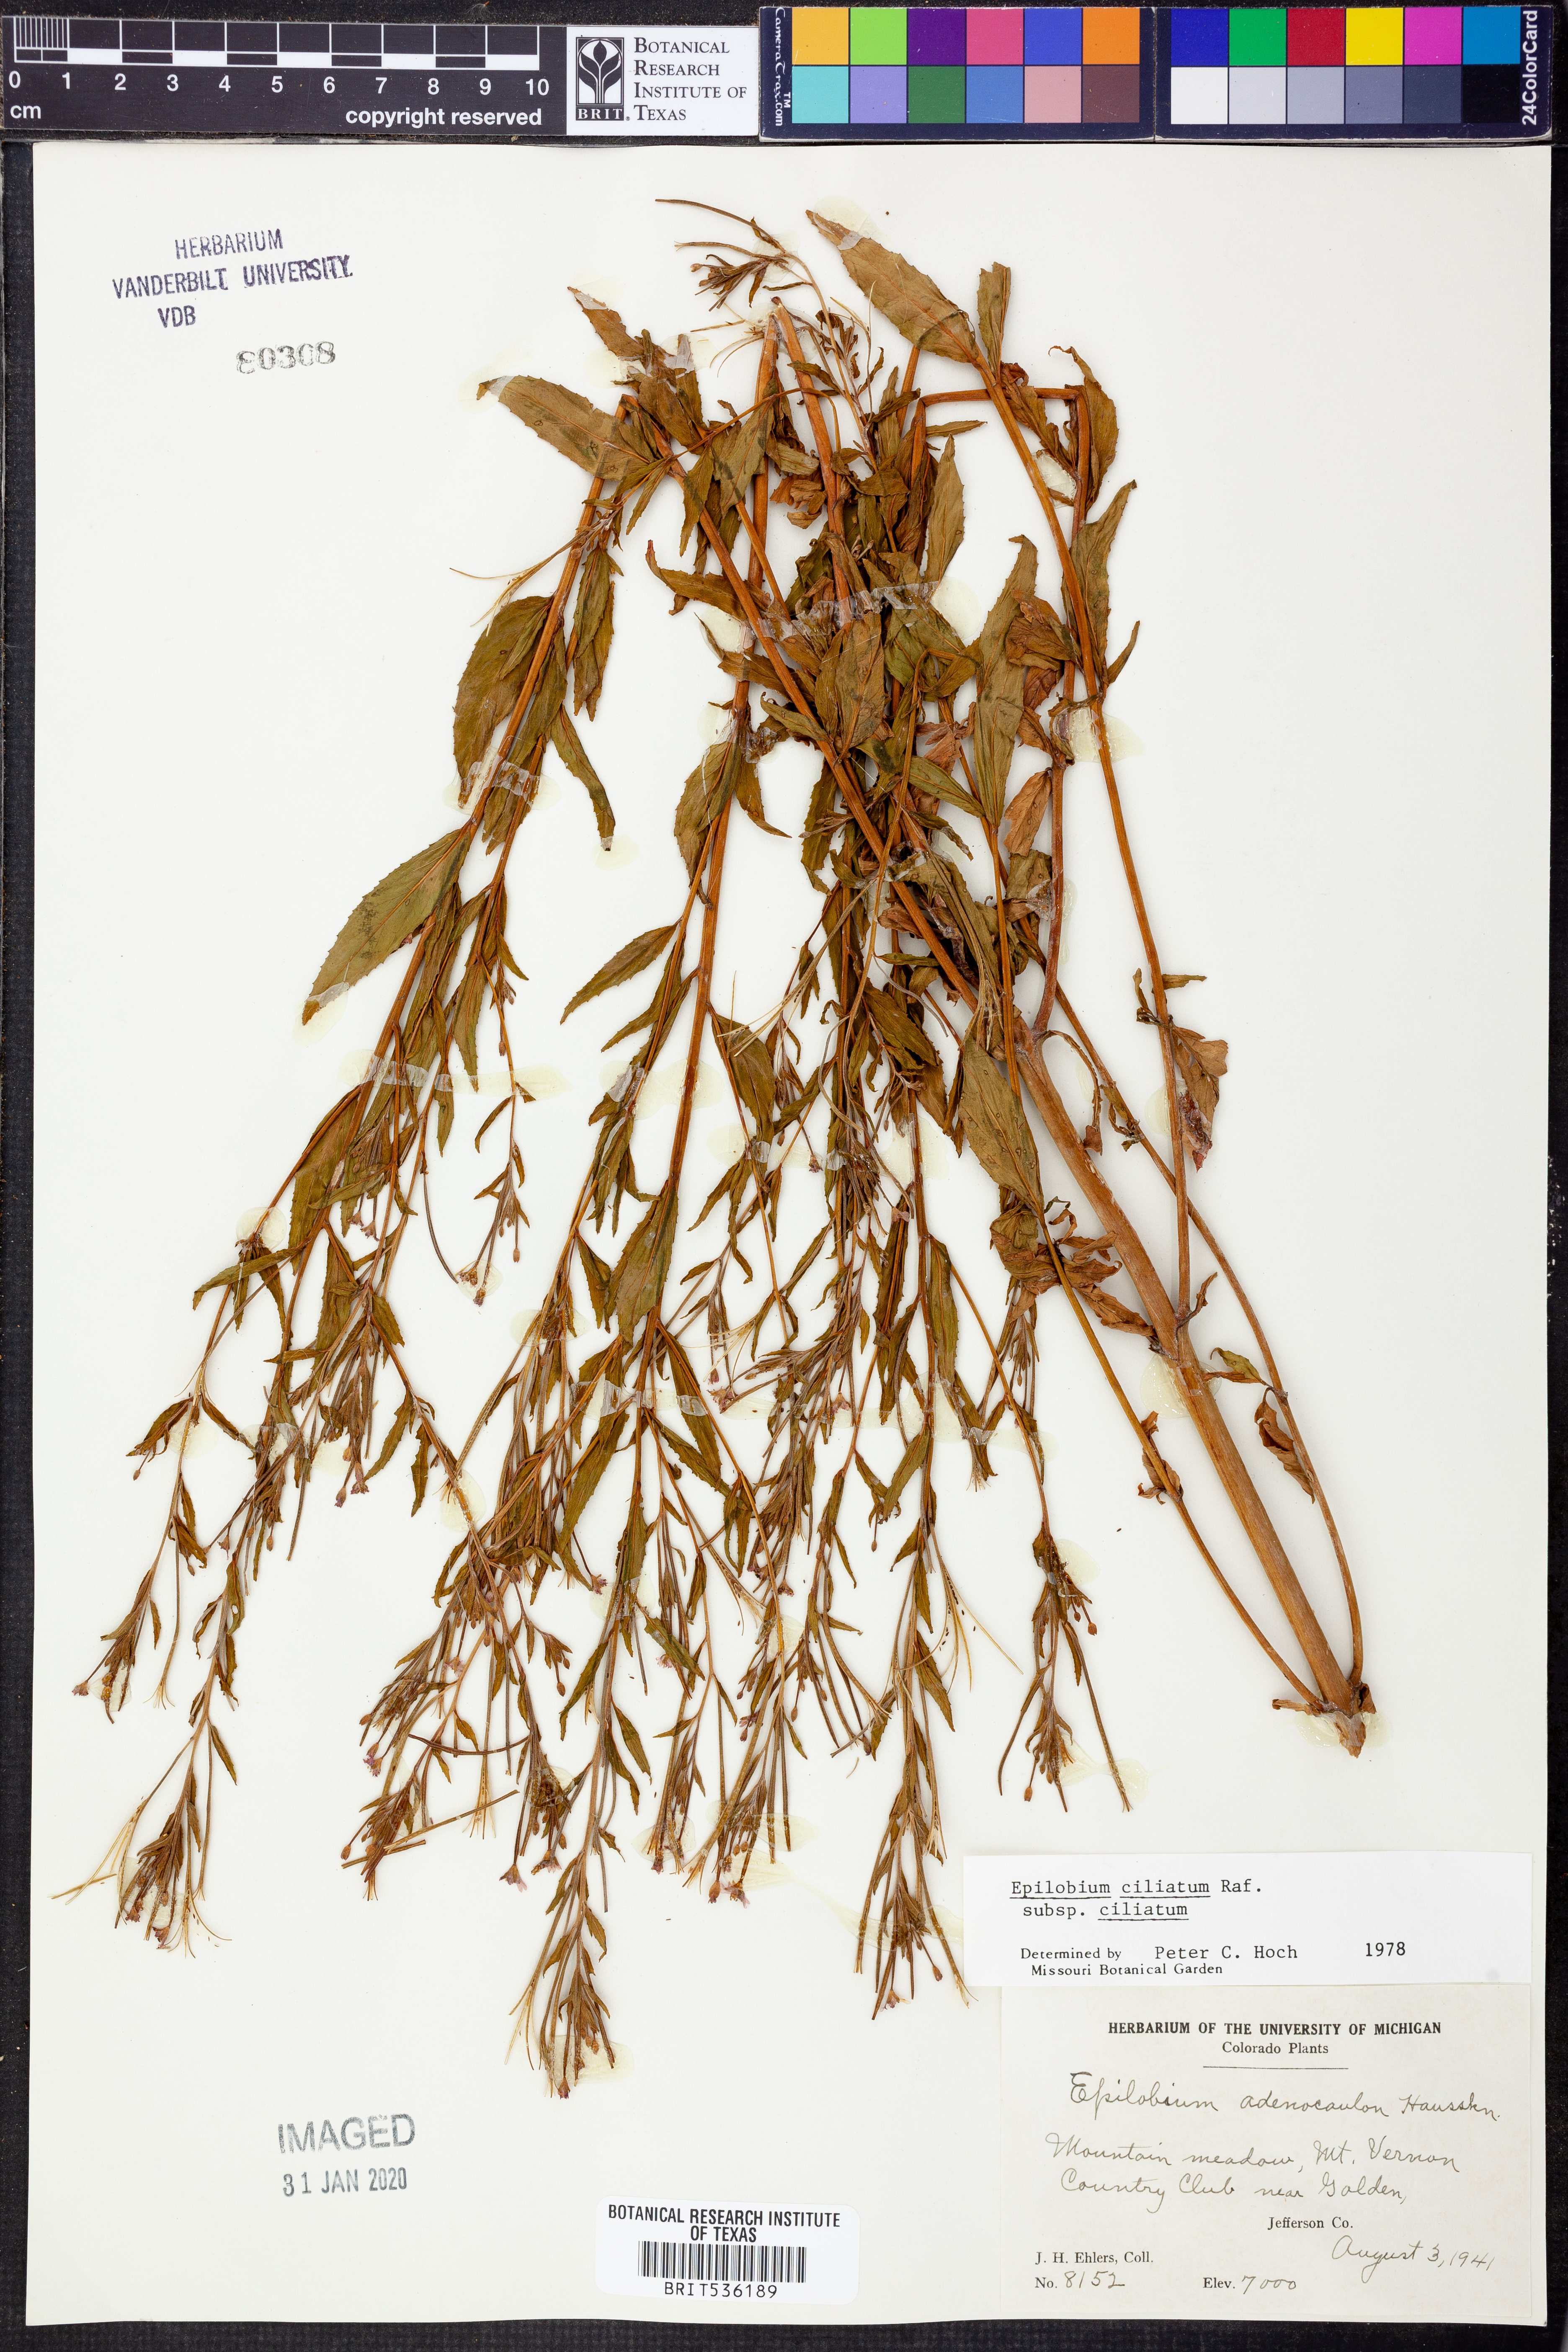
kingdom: Plantae
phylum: Tracheophyta
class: Magnoliopsida
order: Myrtales
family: Onagraceae
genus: Epilobium
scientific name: Epilobium ciliatum
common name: American willowherb
